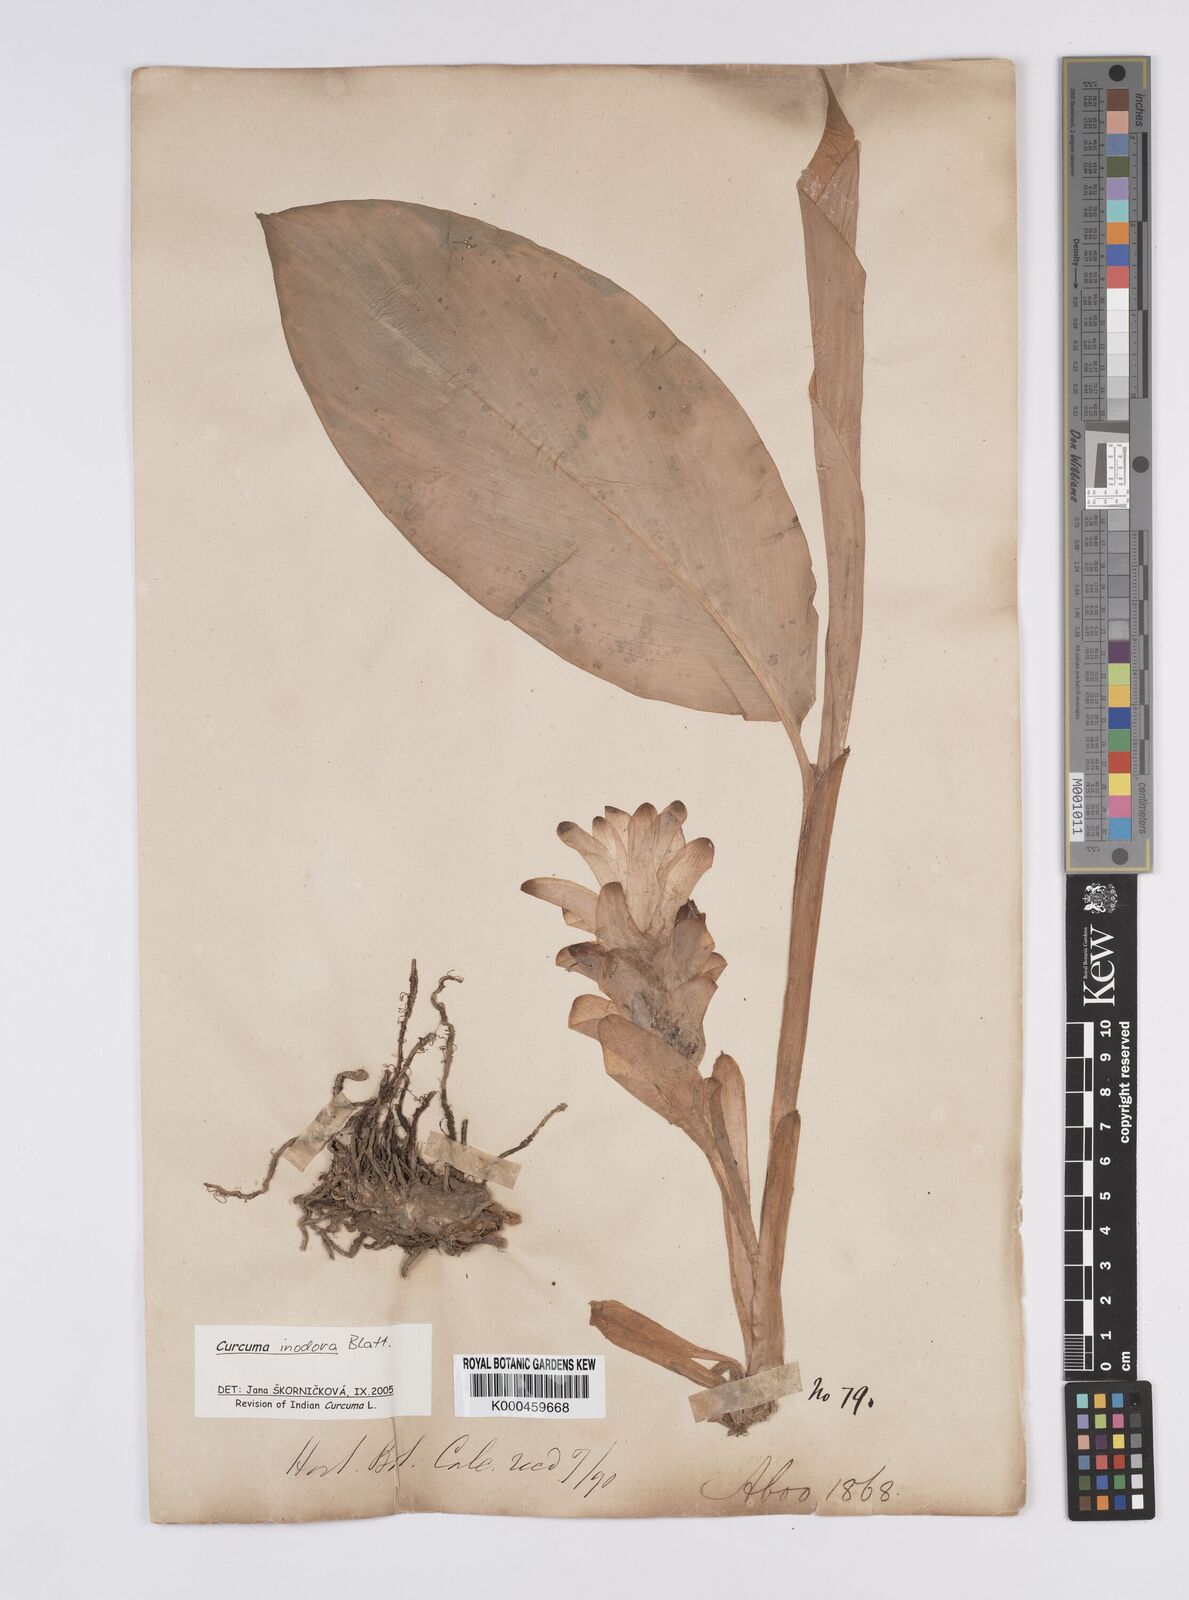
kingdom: Plantae
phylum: Tracheophyta
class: Liliopsida
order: Zingiberales
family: Zingiberaceae
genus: Curcuma
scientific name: Curcuma inodora
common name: Hidden lily
